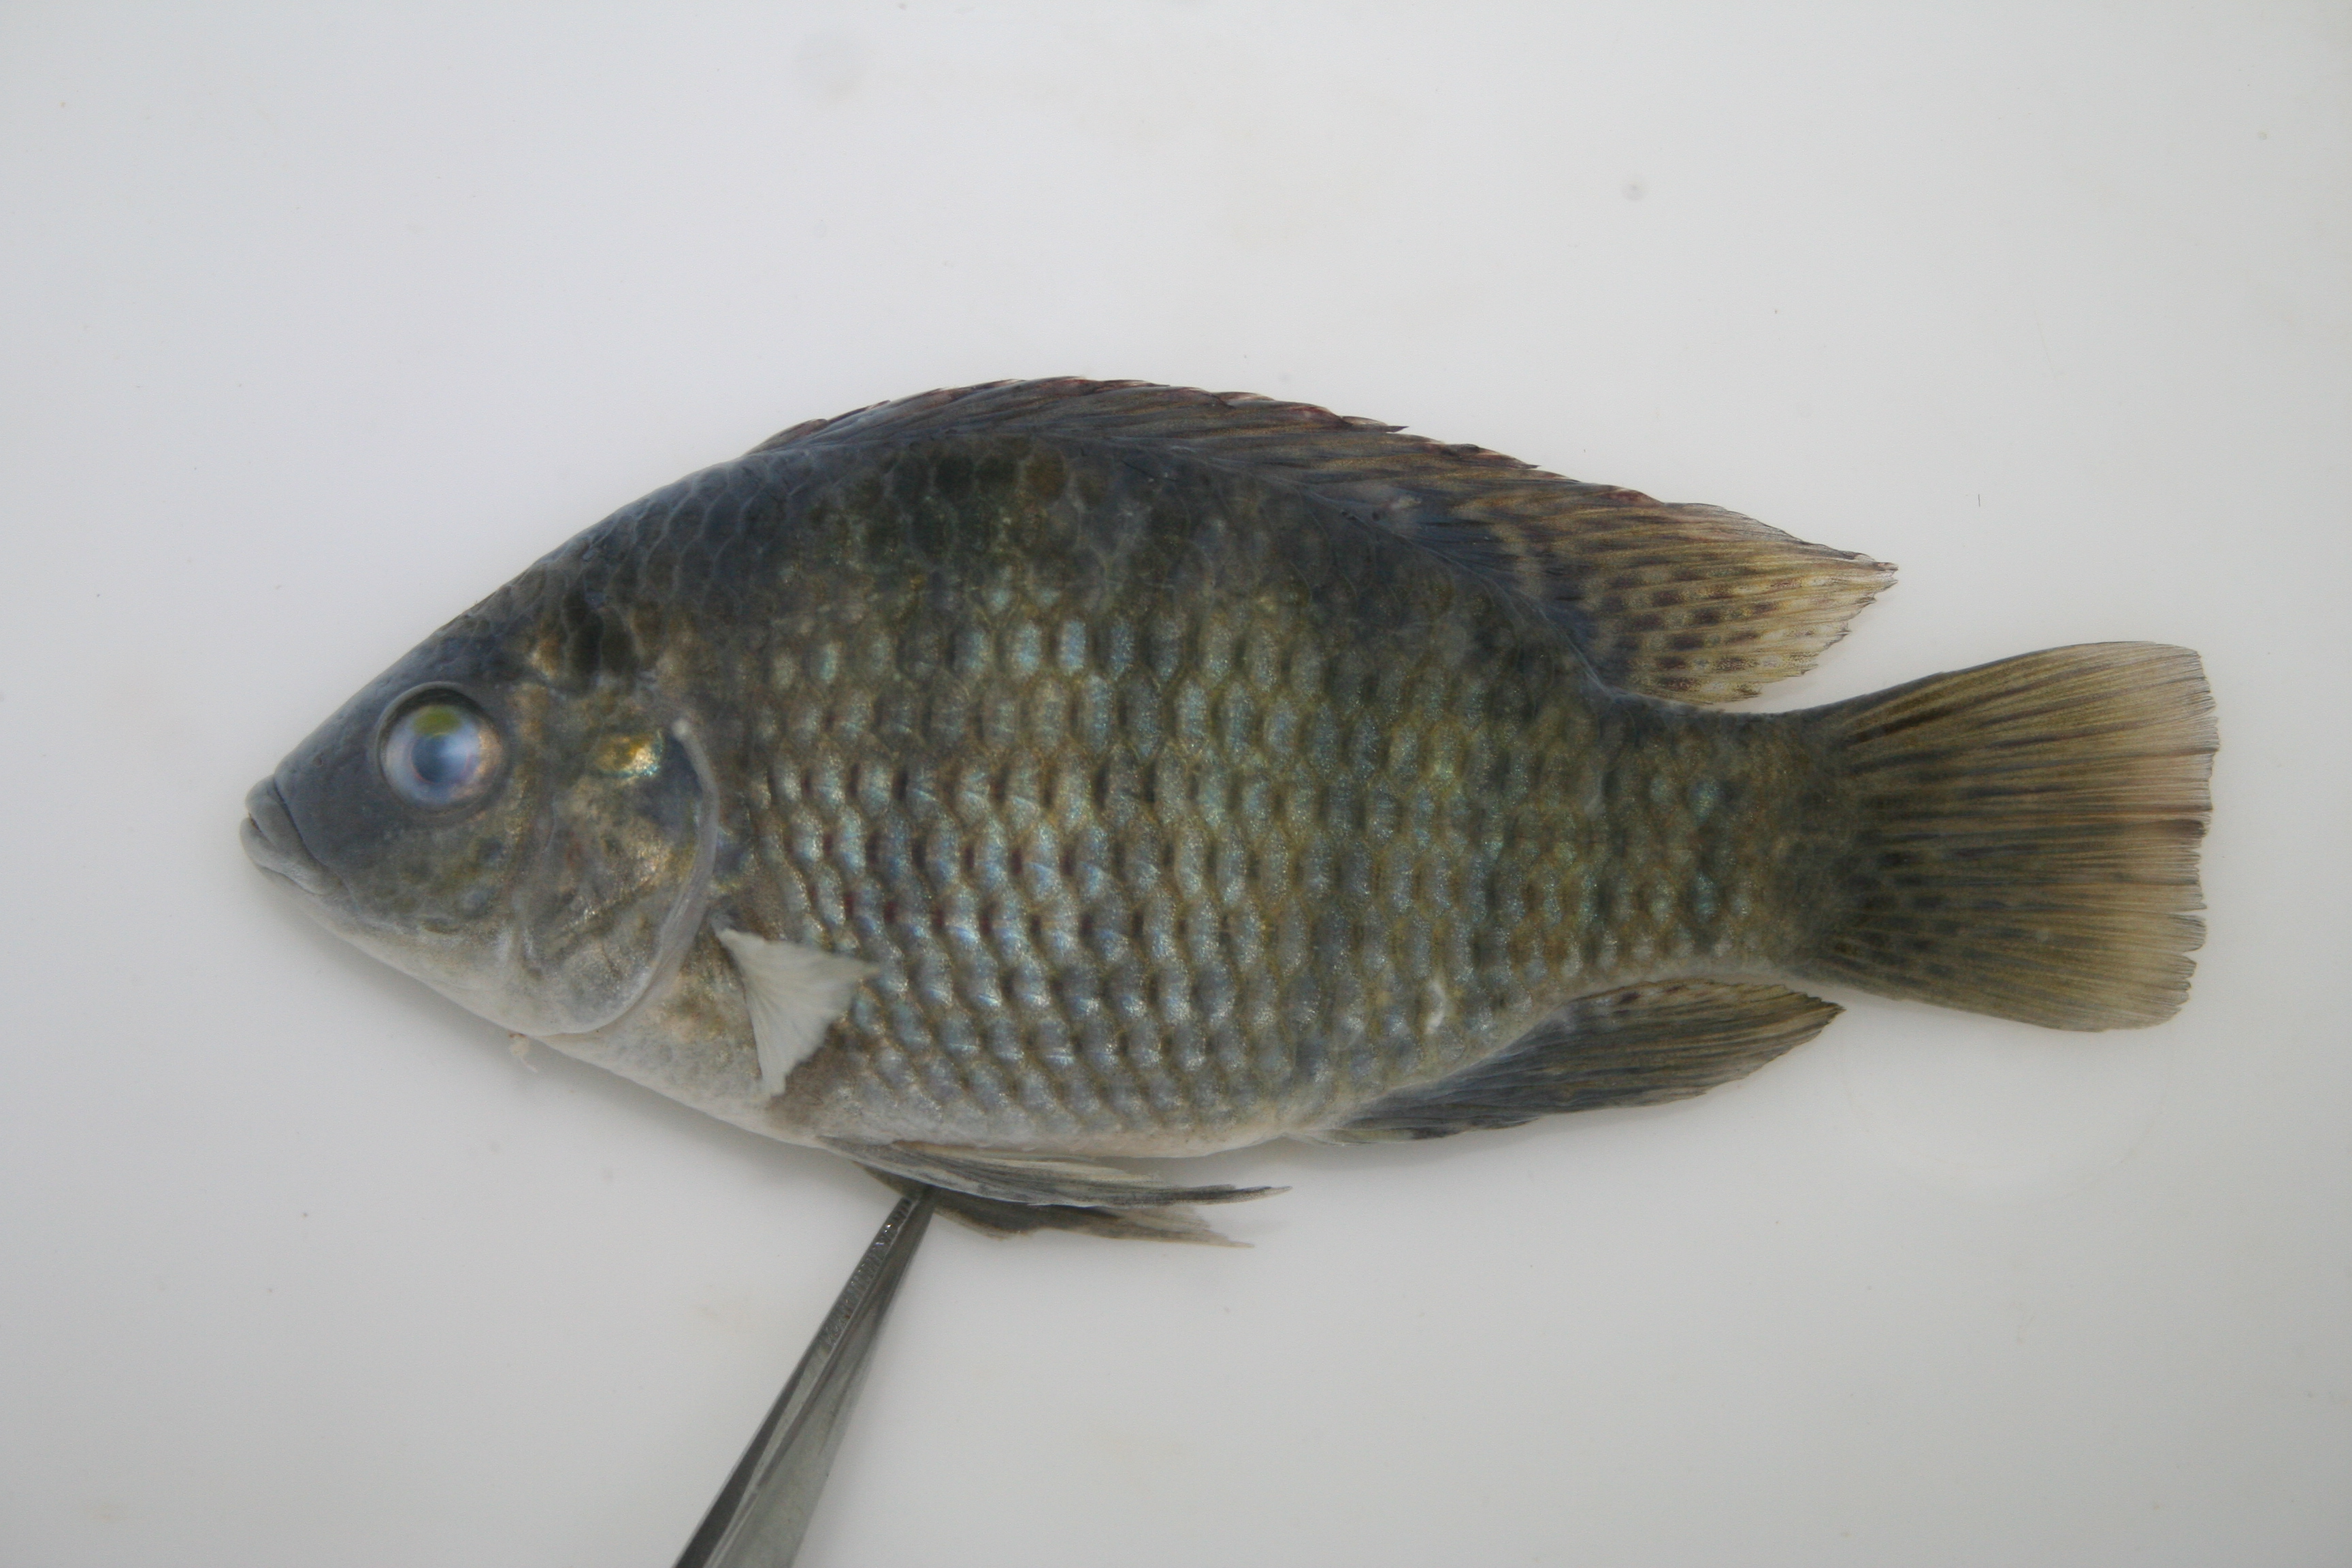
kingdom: Animalia
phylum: Chordata
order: Perciformes
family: Cichlidae
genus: Tilapia
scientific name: Tilapia sparrmanii
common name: Banded tilapia
